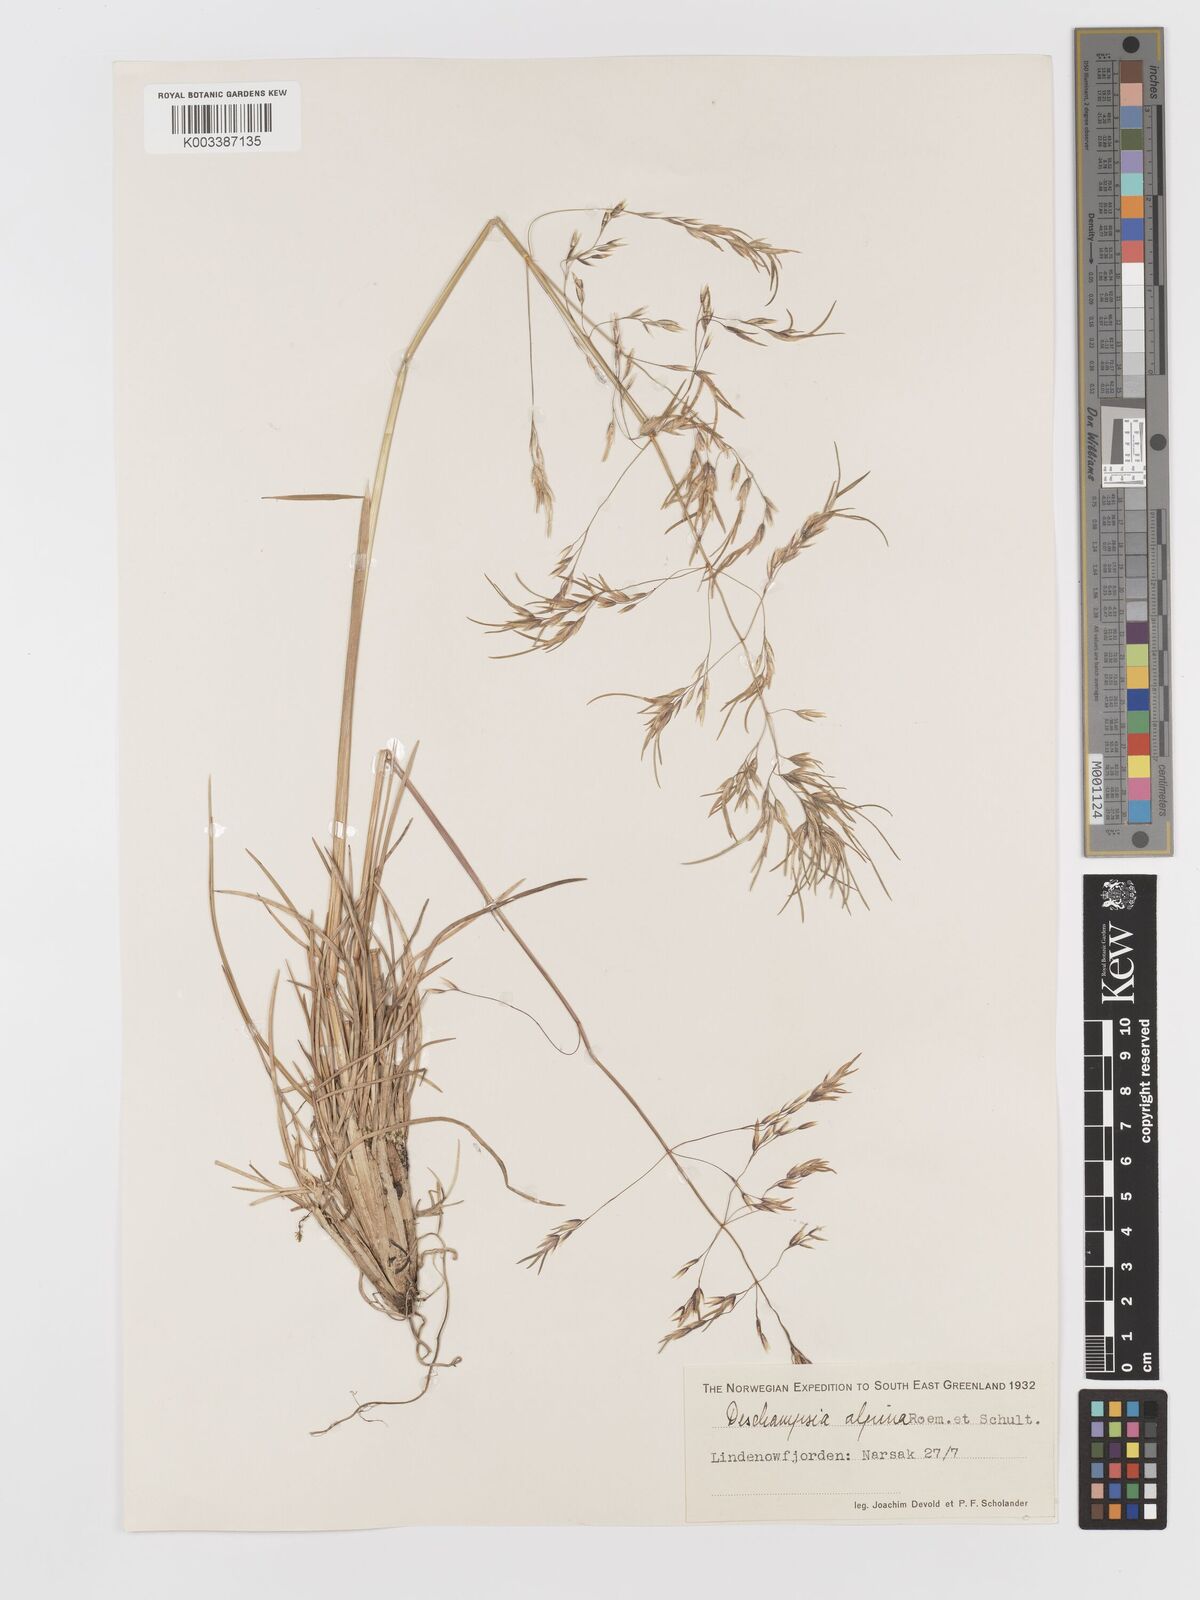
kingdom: Plantae
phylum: Tracheophyta
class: Liliopsida
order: Poales
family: Poaceae
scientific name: Poaceae
